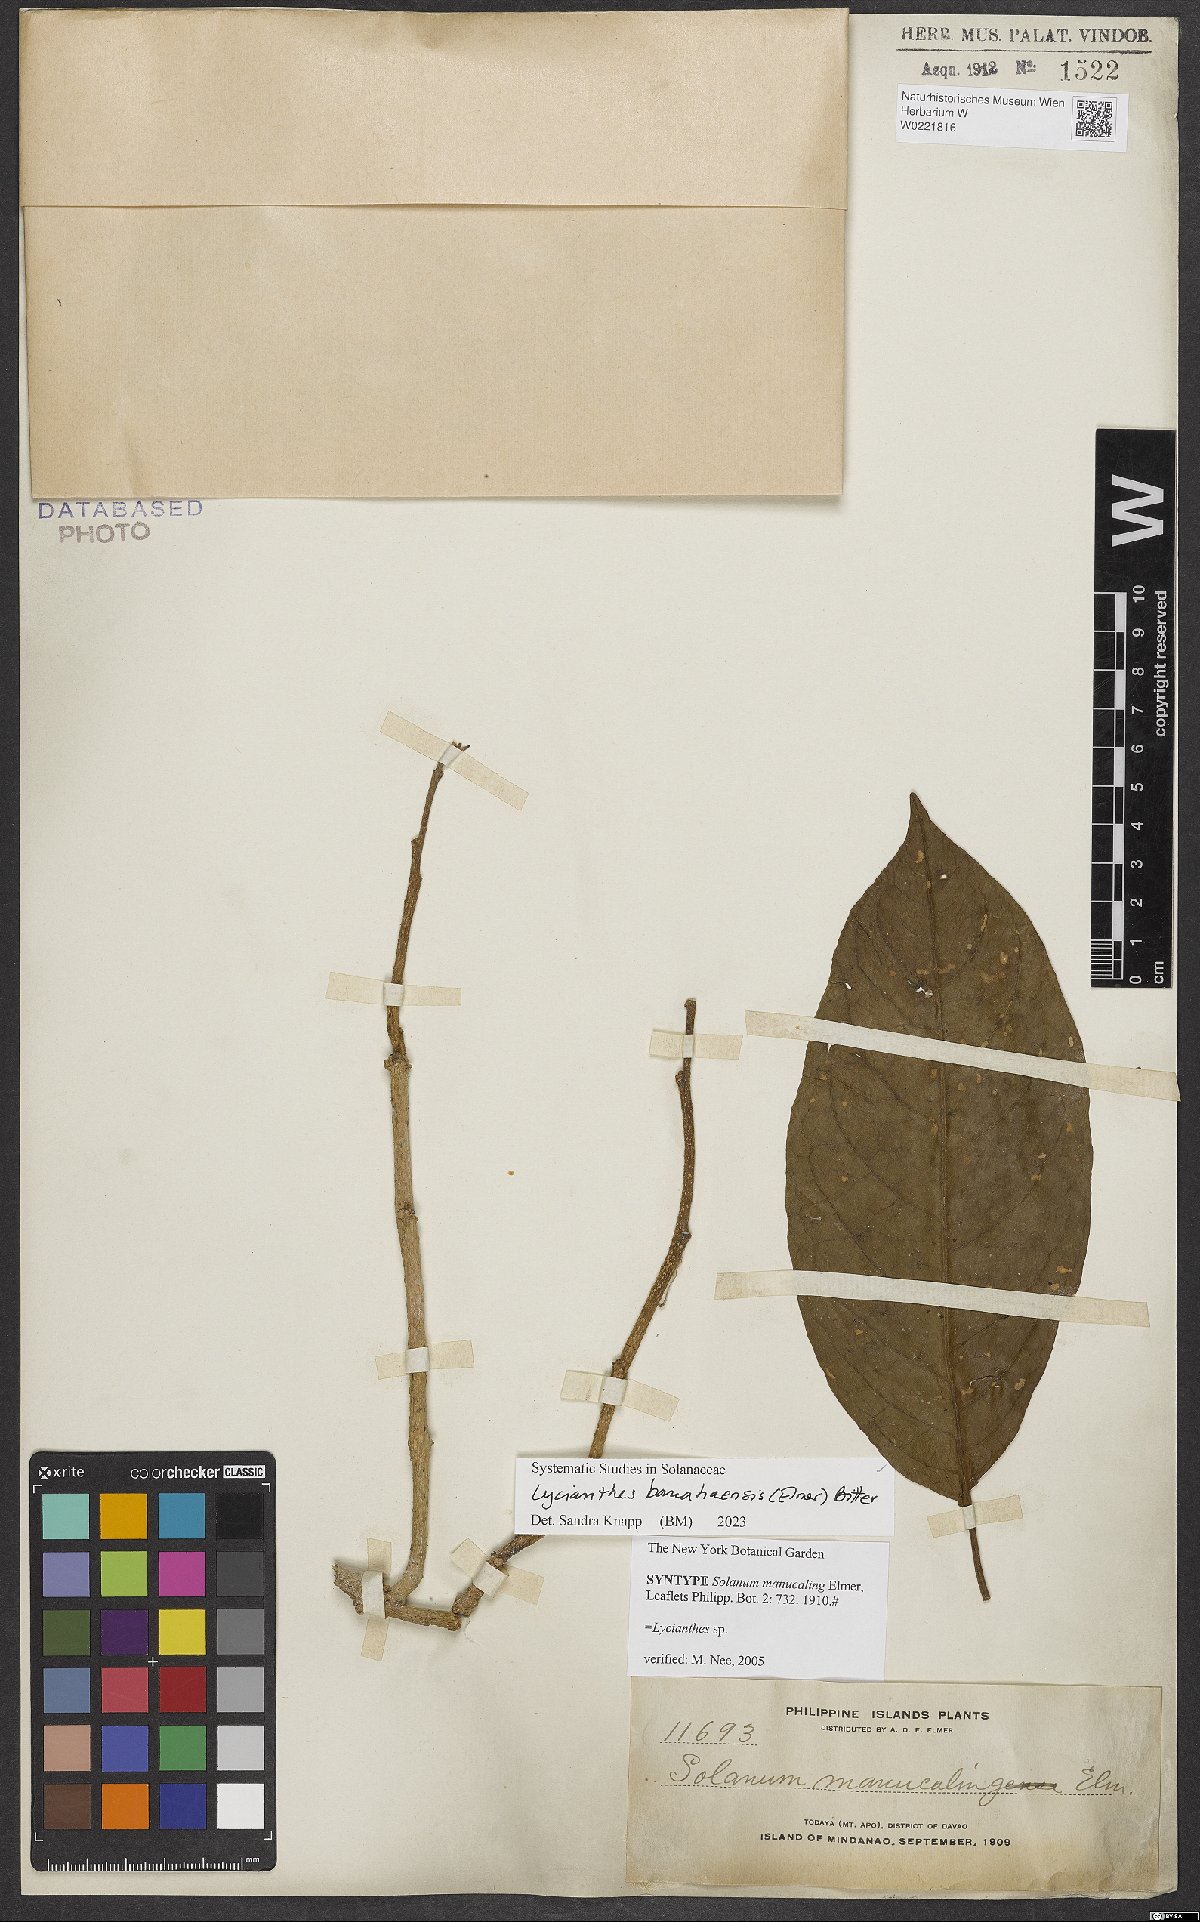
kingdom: Plantae
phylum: Tracheophyta
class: Magnoliopsida
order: Solanales
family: Solanaceae
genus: Lycianthes
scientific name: Lycianthes banahaensis
